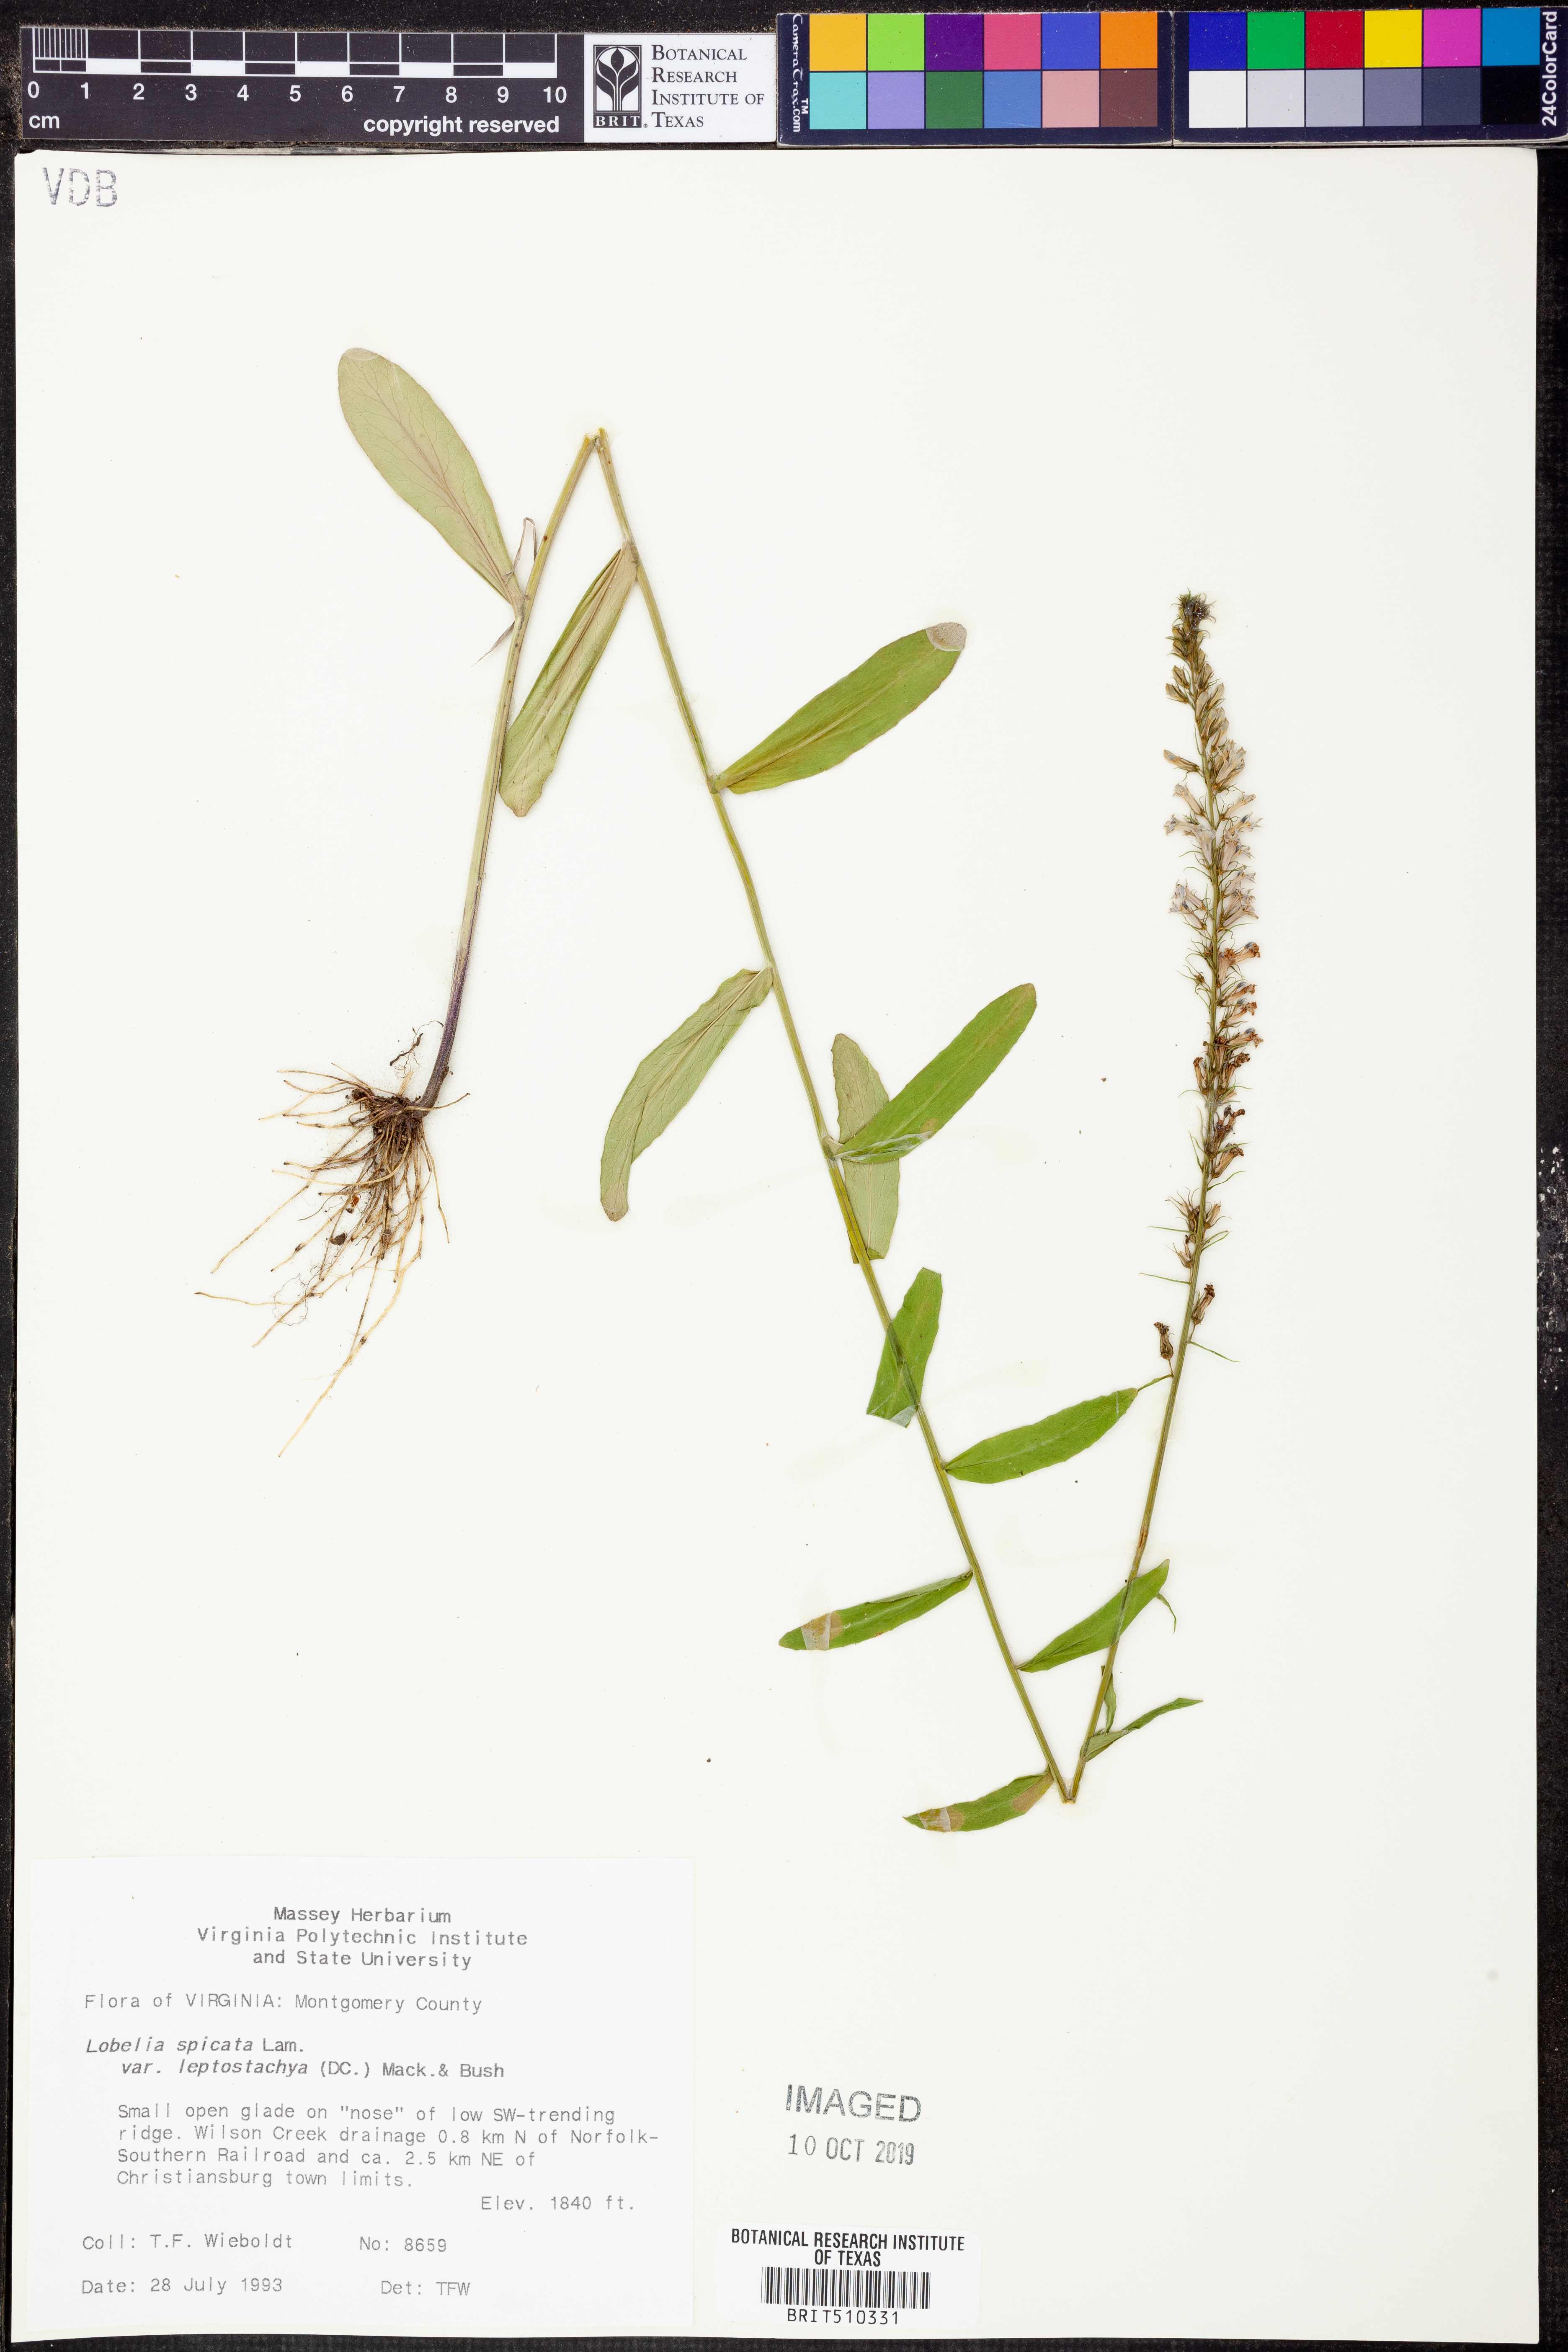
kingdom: Plantae
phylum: Tracheophyta
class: Magnoliopsida
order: Asterales
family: Campanulaceae
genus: Lobelia
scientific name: Lobelia spicata
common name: Pale-spike lobelia
